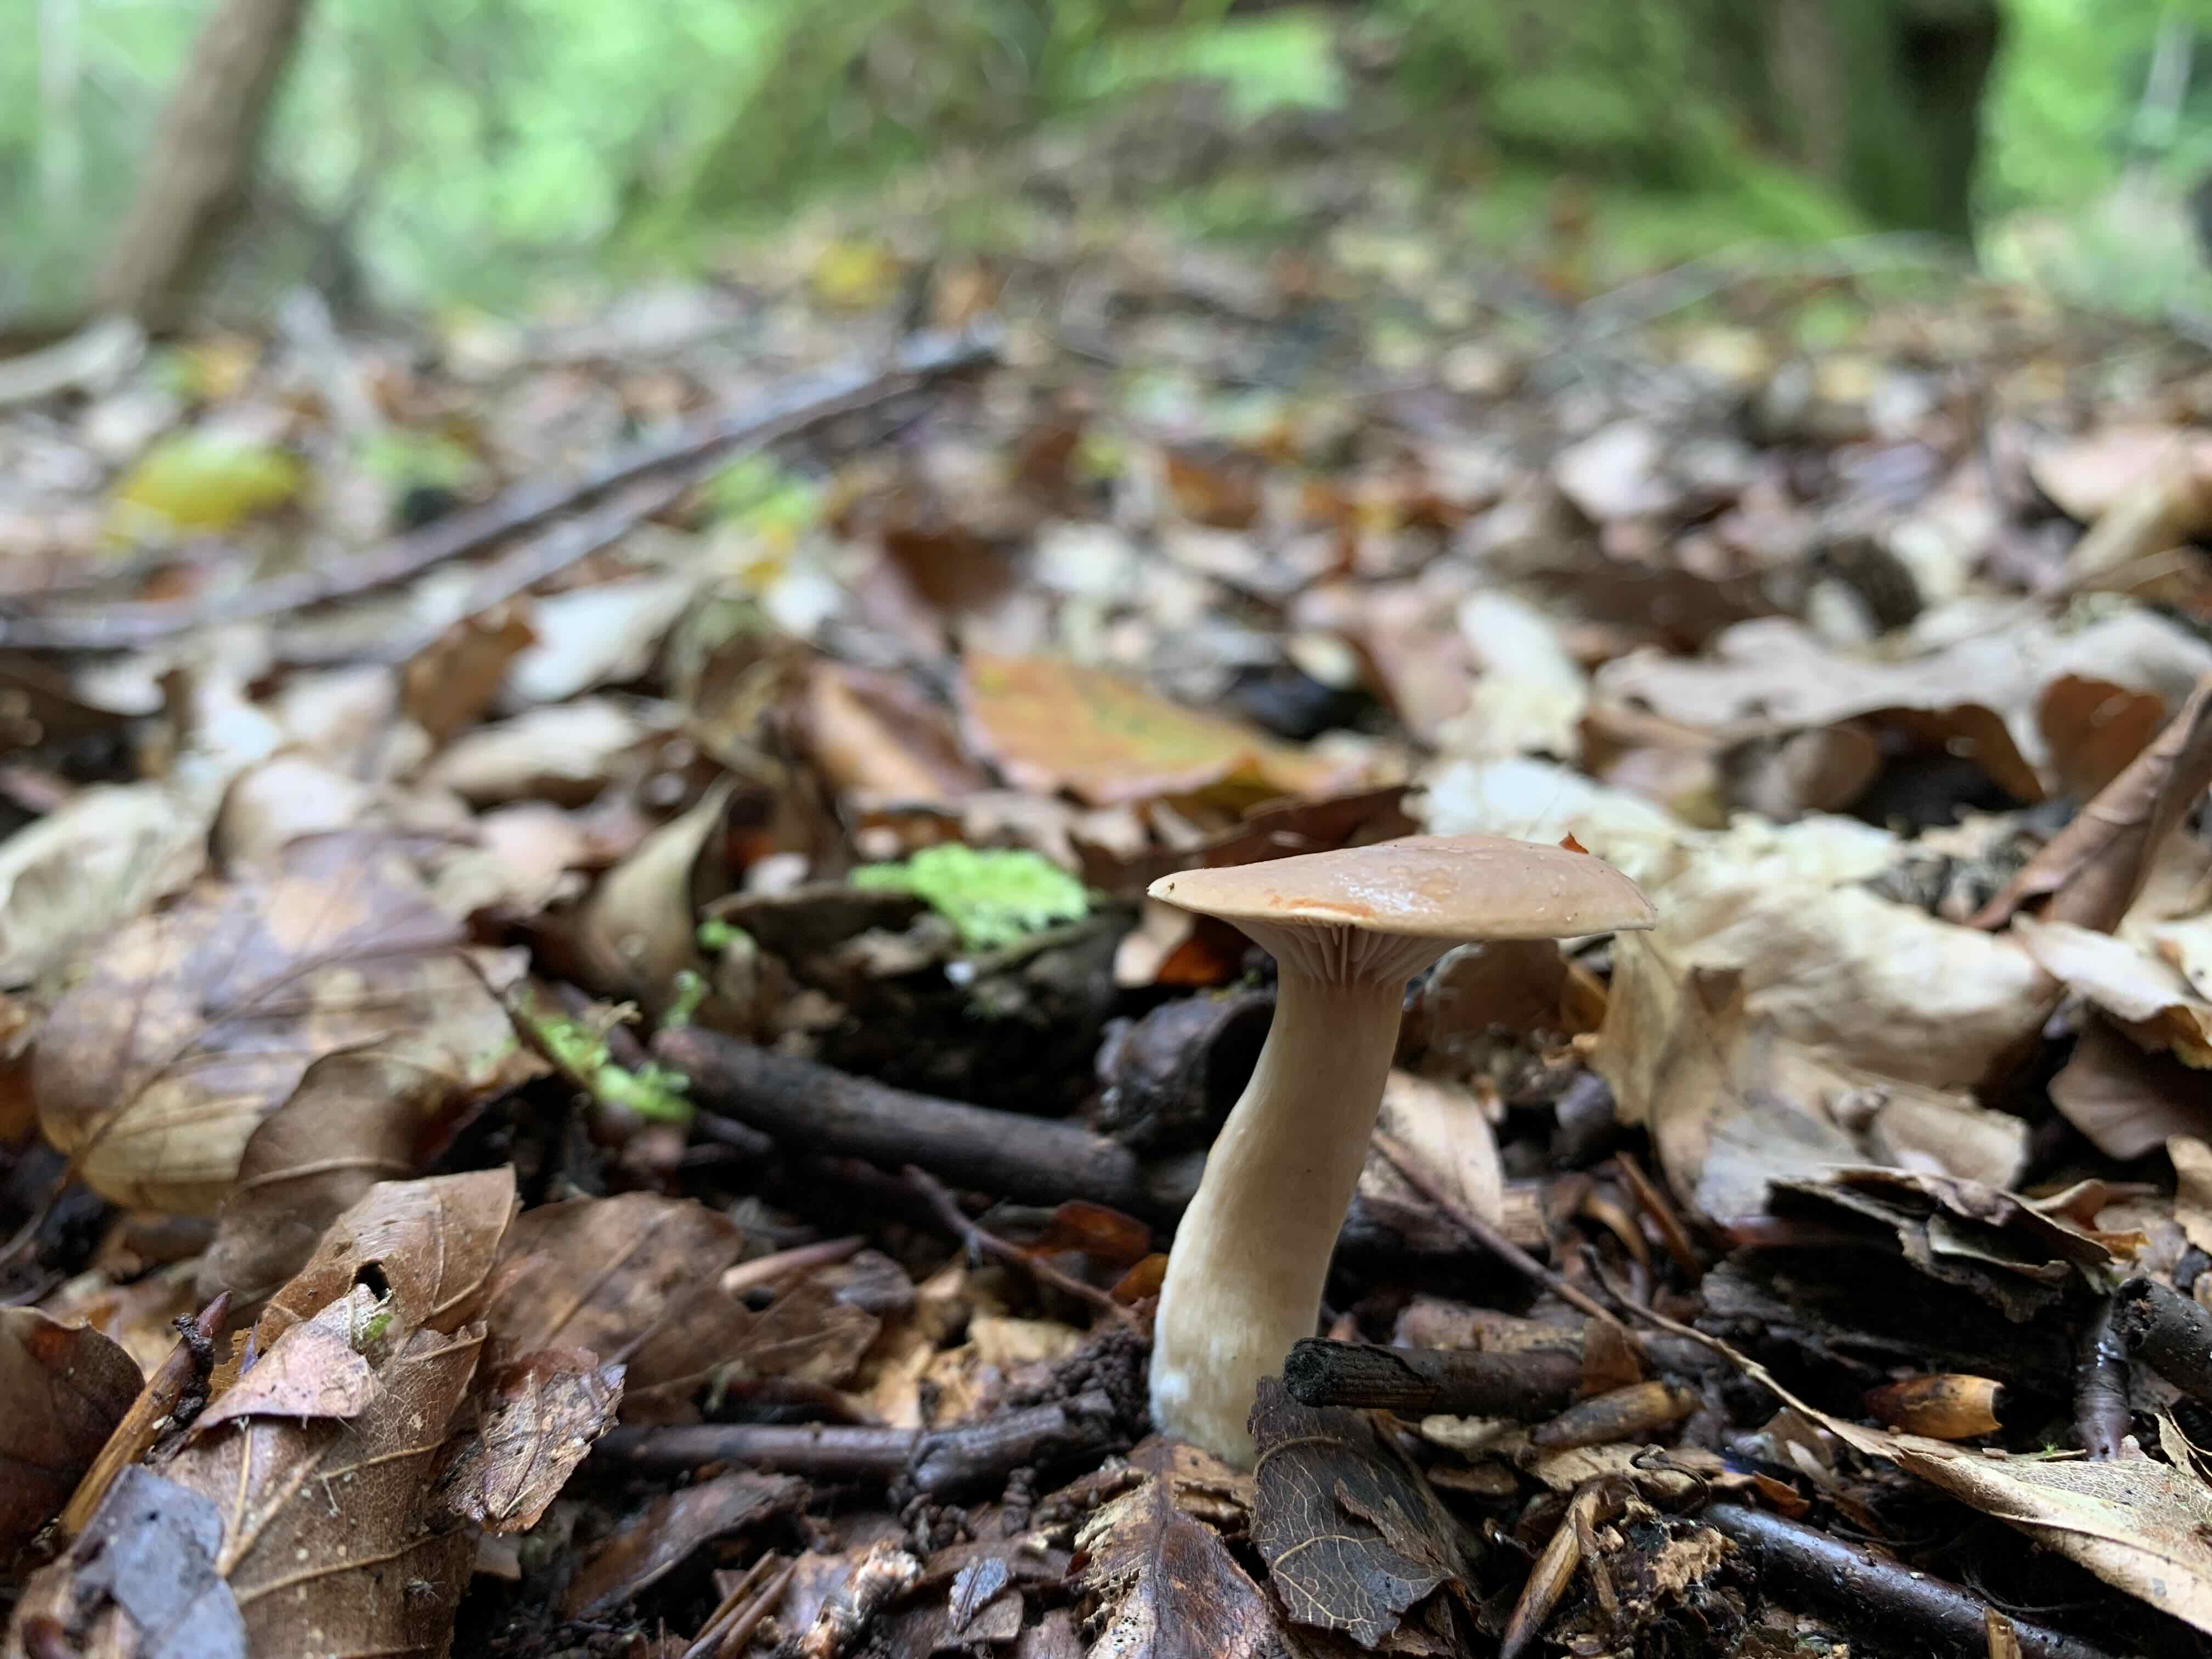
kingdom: Fungi
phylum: Basidiomycota
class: Agaricomycetes
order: Russulales
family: Russulaceae
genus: Lactarius
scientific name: Lactarius subdulcis
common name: sødlig mælkehat
